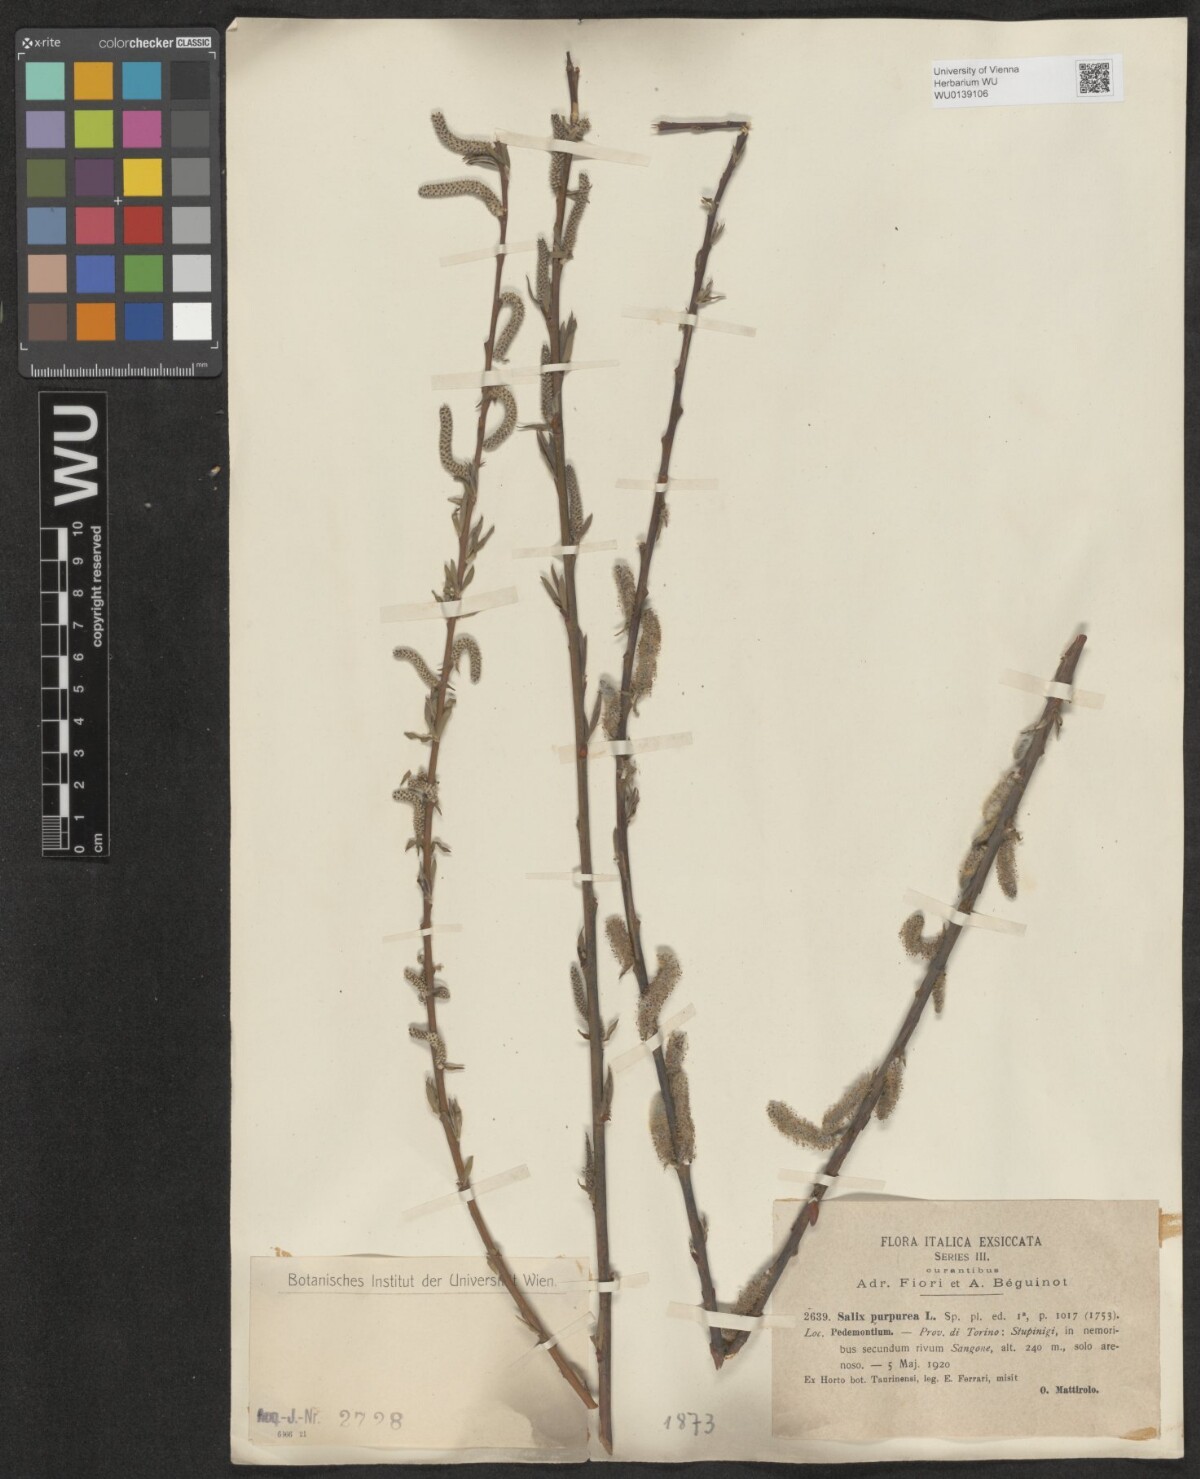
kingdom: Plantae
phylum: Tracheophyta
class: Magnoliopsida
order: Malpighiales
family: Salicaceae
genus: Salix
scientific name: Salix purpurea
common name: Purple willow
